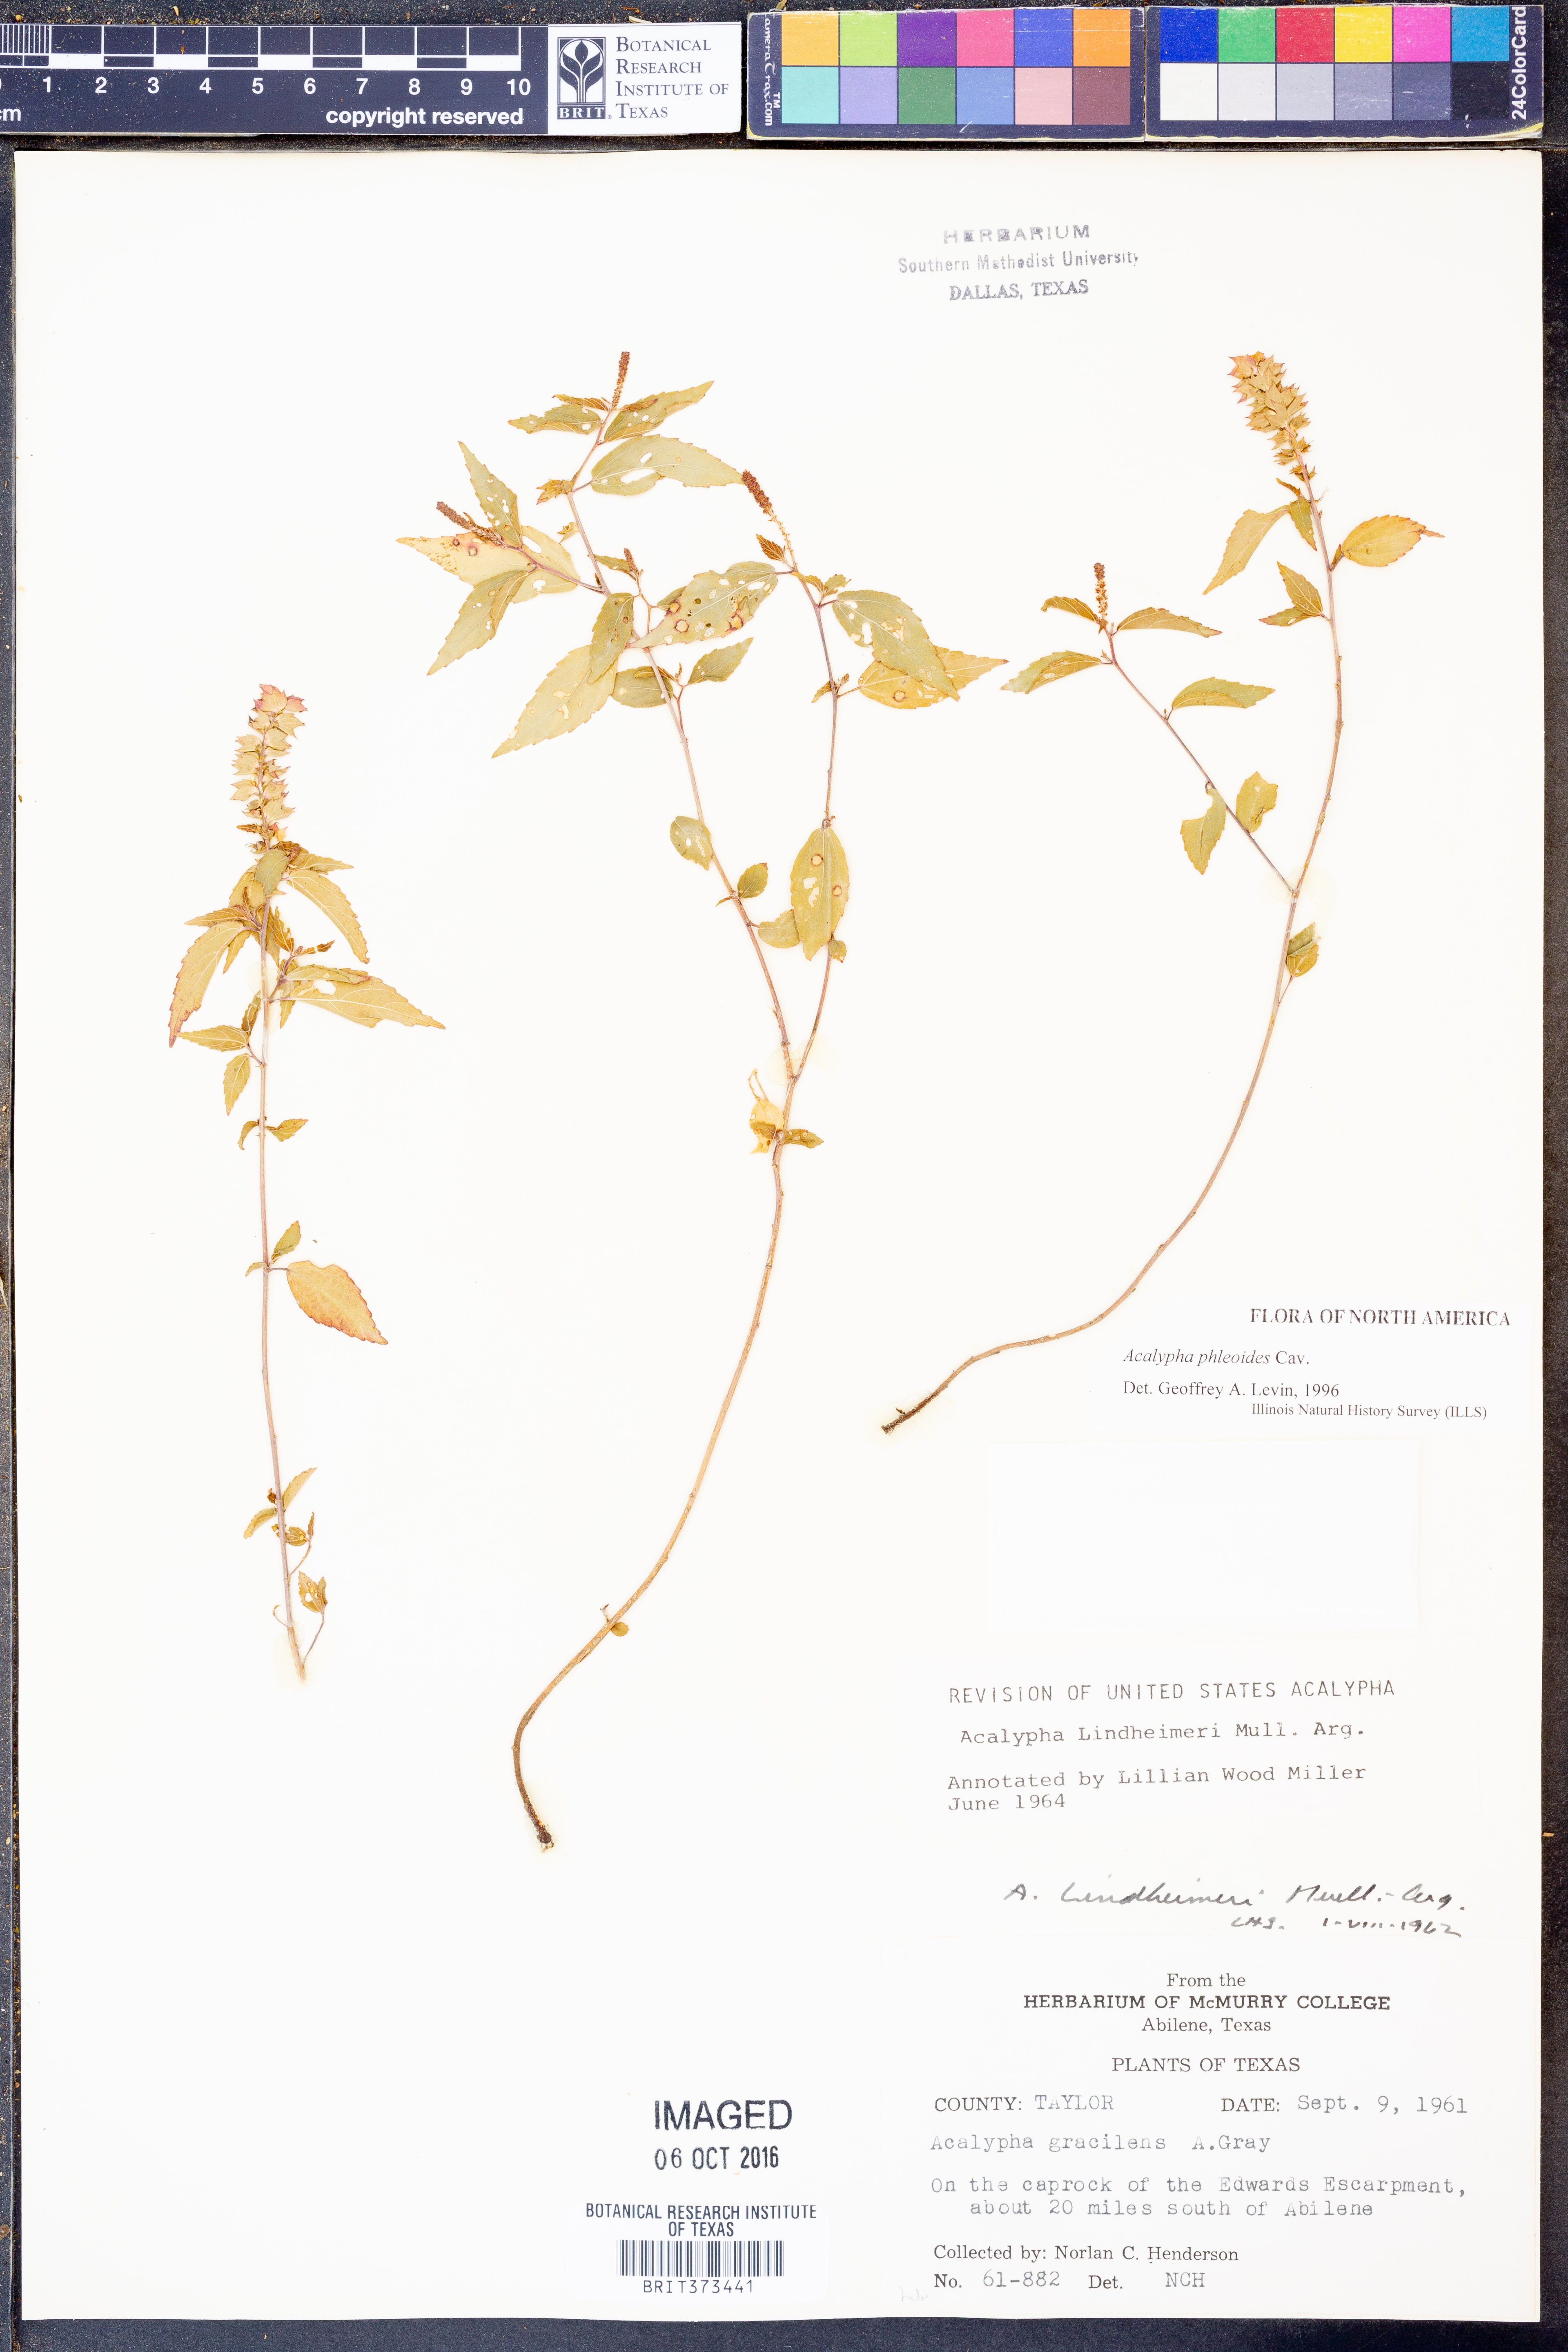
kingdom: Plantae
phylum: Tracheophyta
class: Magnoliopsida
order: Malpighiales
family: Euphorbiaceae
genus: Acalypha
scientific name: Acalypha phleoides
